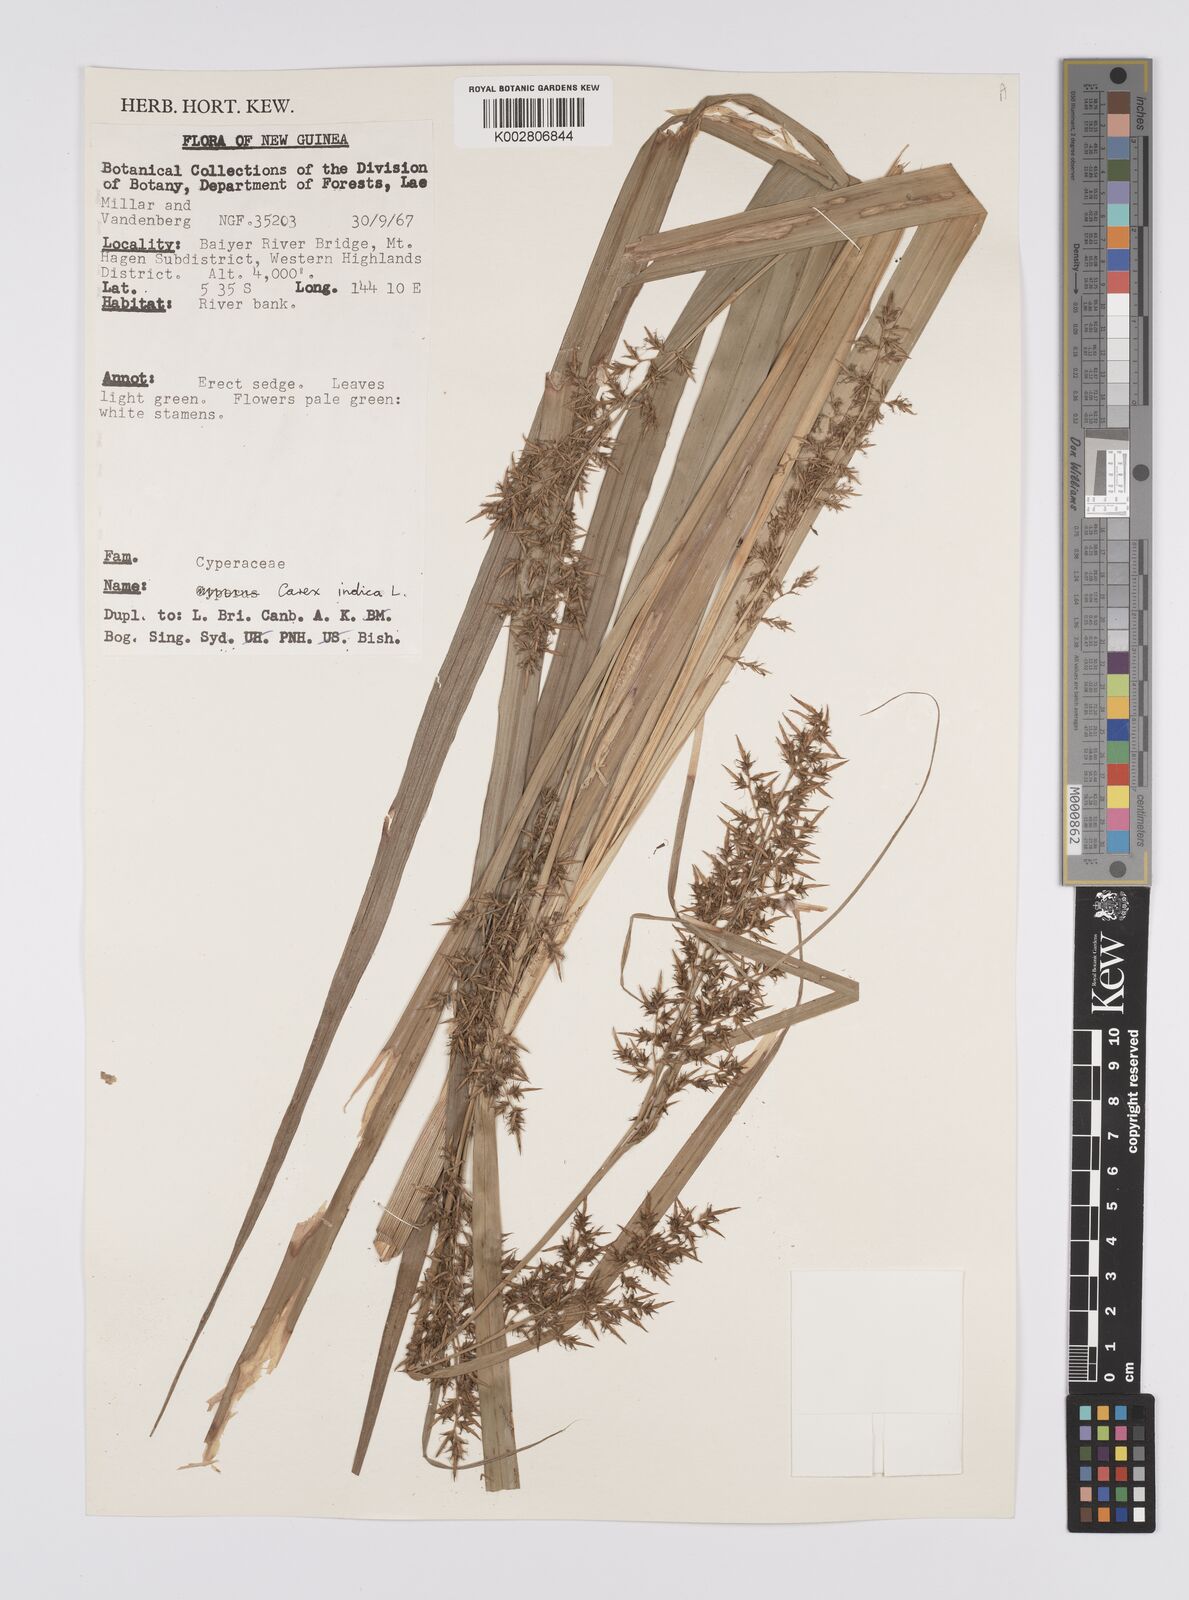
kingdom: Plantae
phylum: Tracheophyta
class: Liliopsida
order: Poales
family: Cyperaceae
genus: Carex
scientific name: Carex indica
